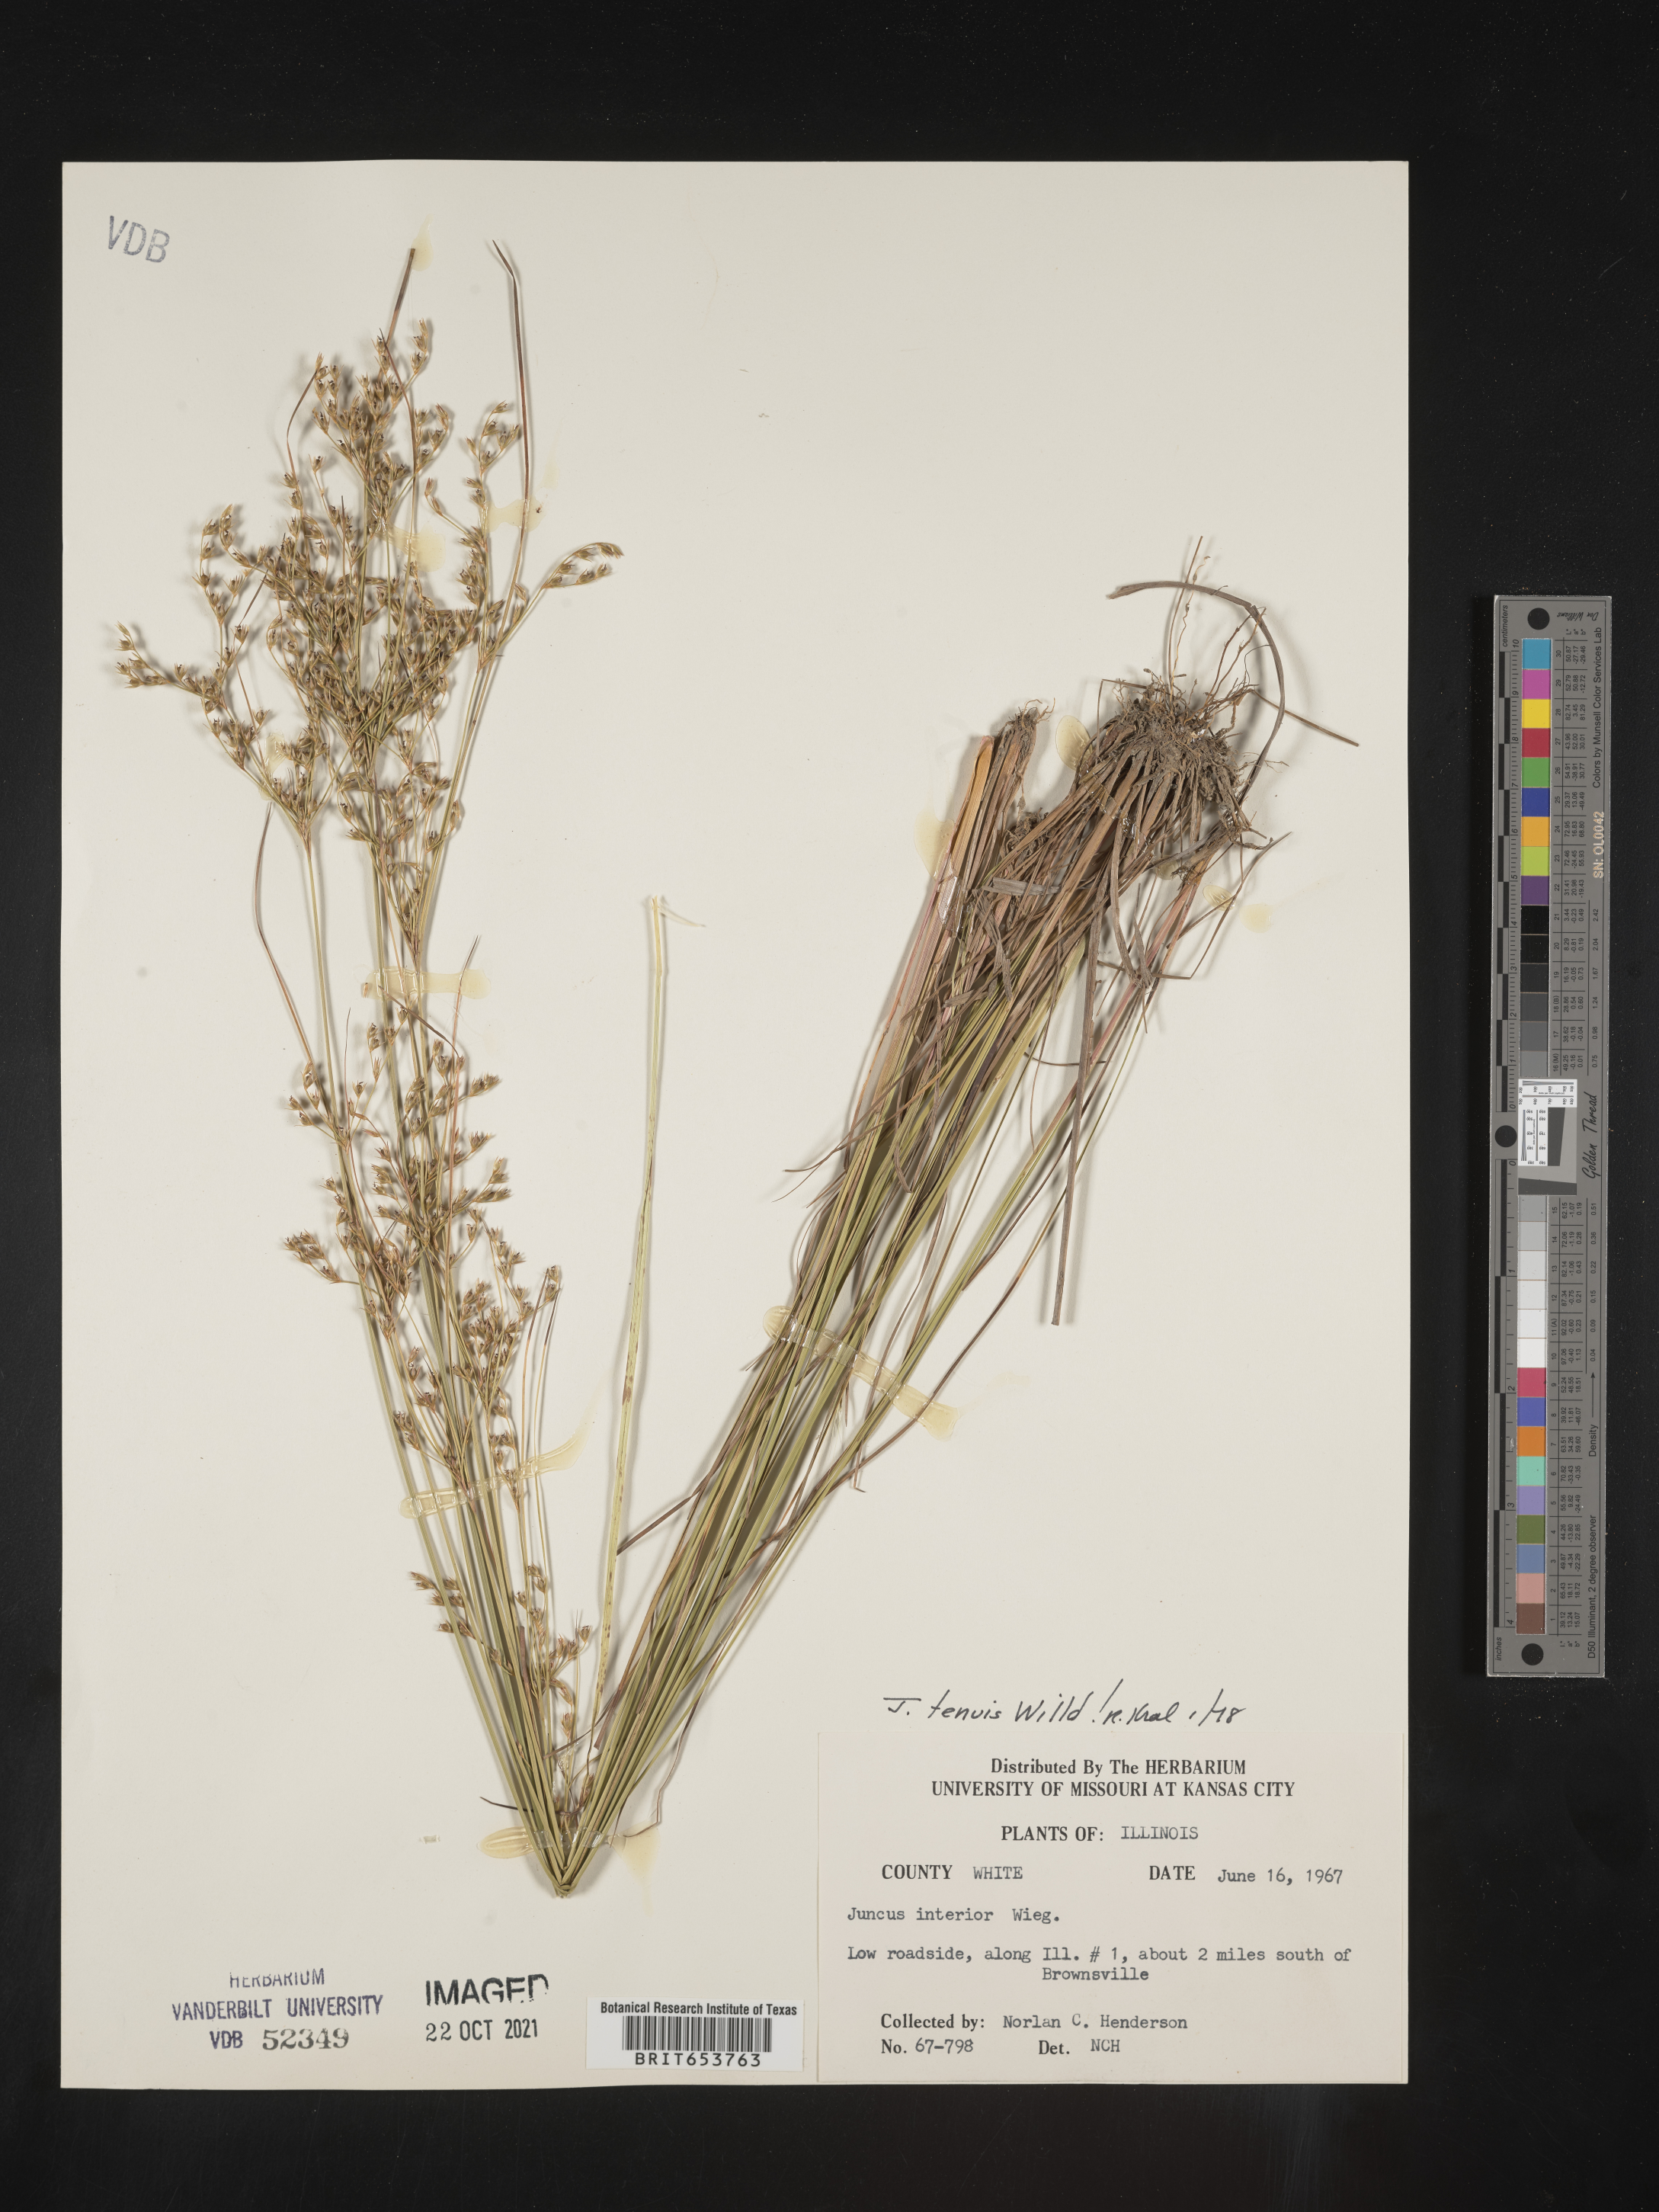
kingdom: Plantae
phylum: Tracheophyta
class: Liliopsida
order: Poales
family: Juncaceae
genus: Juncus
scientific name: Juncus tenuis
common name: Slender rush
